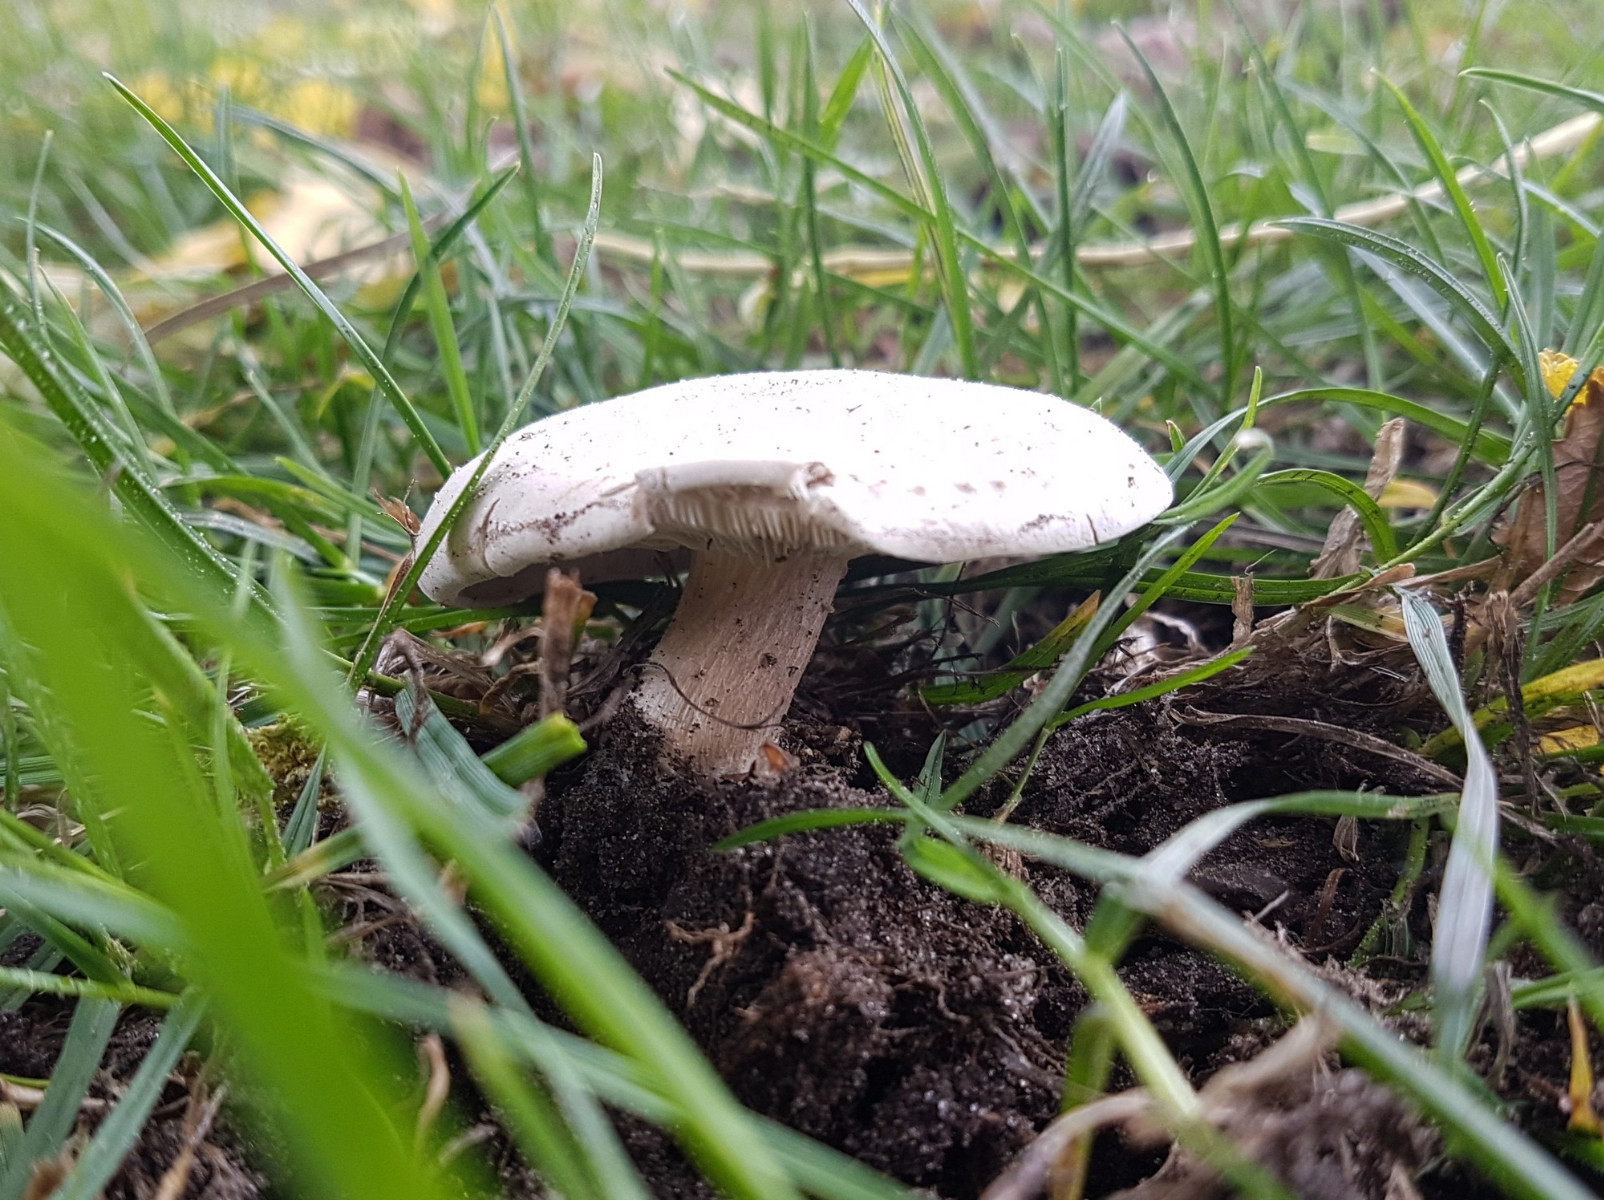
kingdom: Fungi
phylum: Basidiomycota
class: Agaricomycetes
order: Agaricales
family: Tricholomataceae
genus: Melanoleuca
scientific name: Melanoleuca diverticulata
